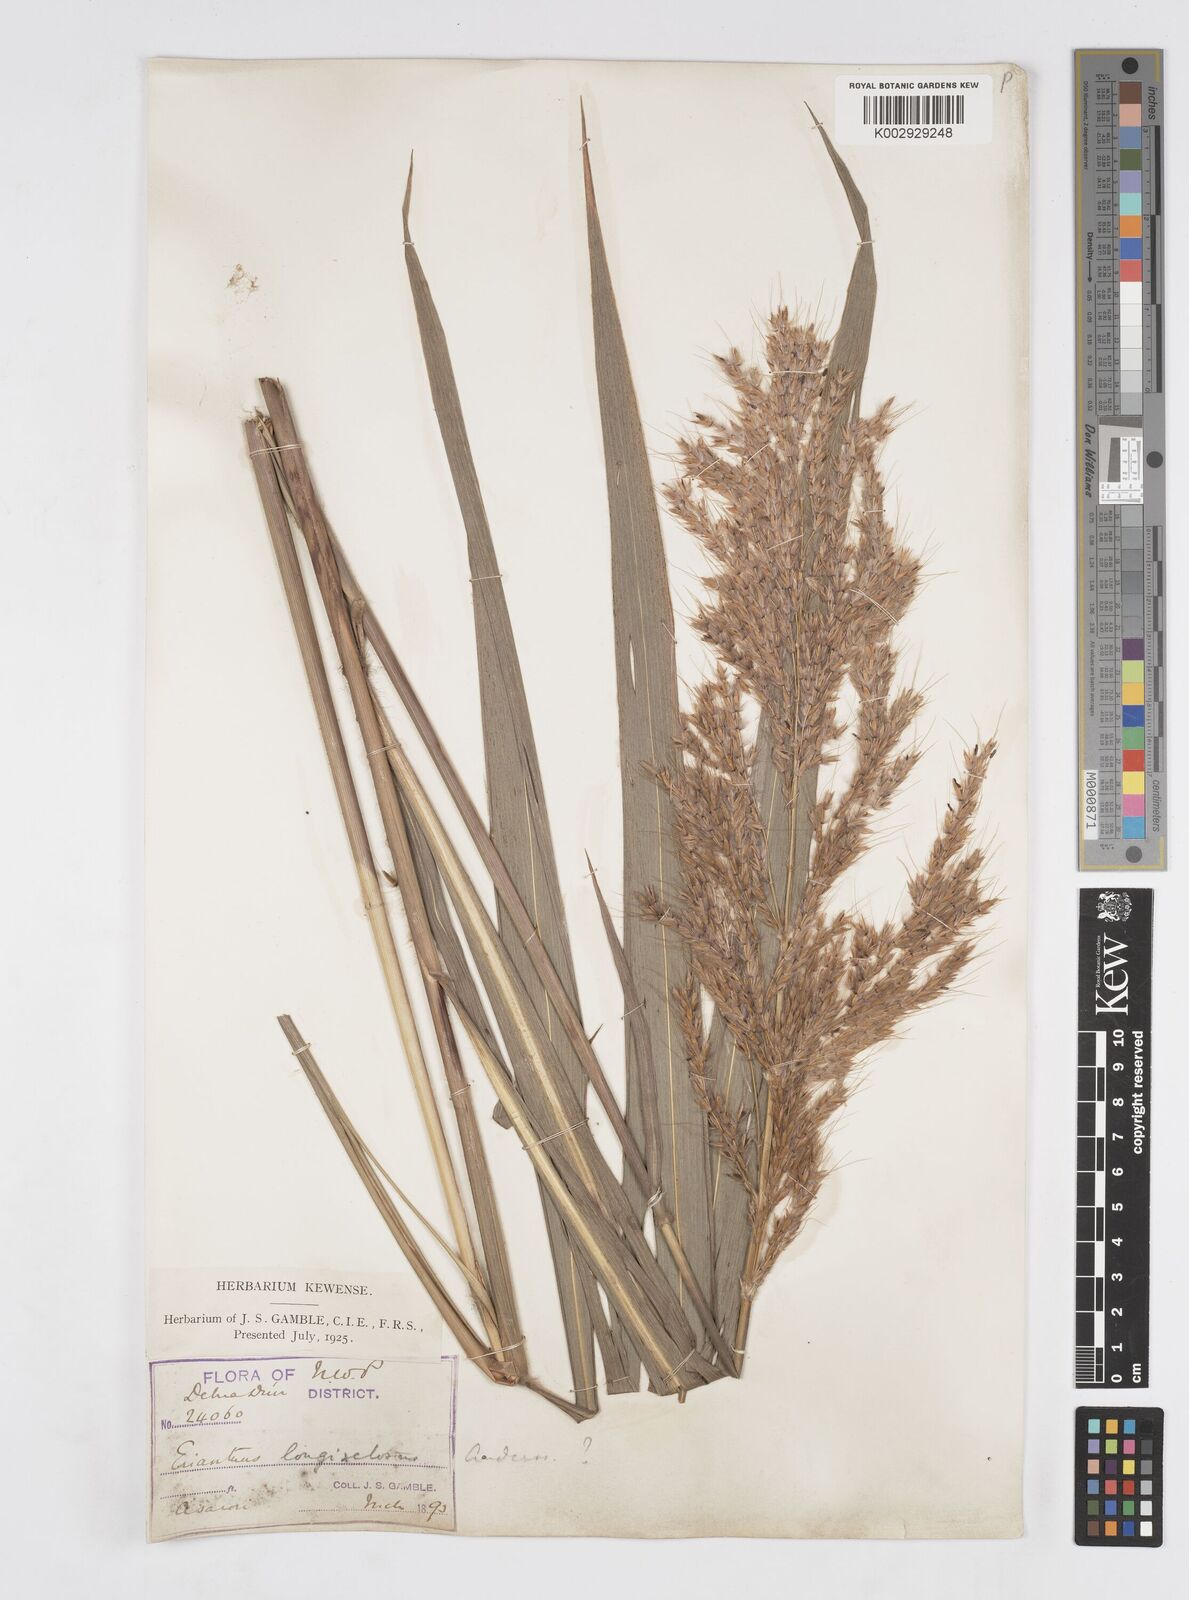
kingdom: Plantae
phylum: Tracheophyta
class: Liliopsida
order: Poales
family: Poaceae
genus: Saccharum
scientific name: Saccharum longesetosum
